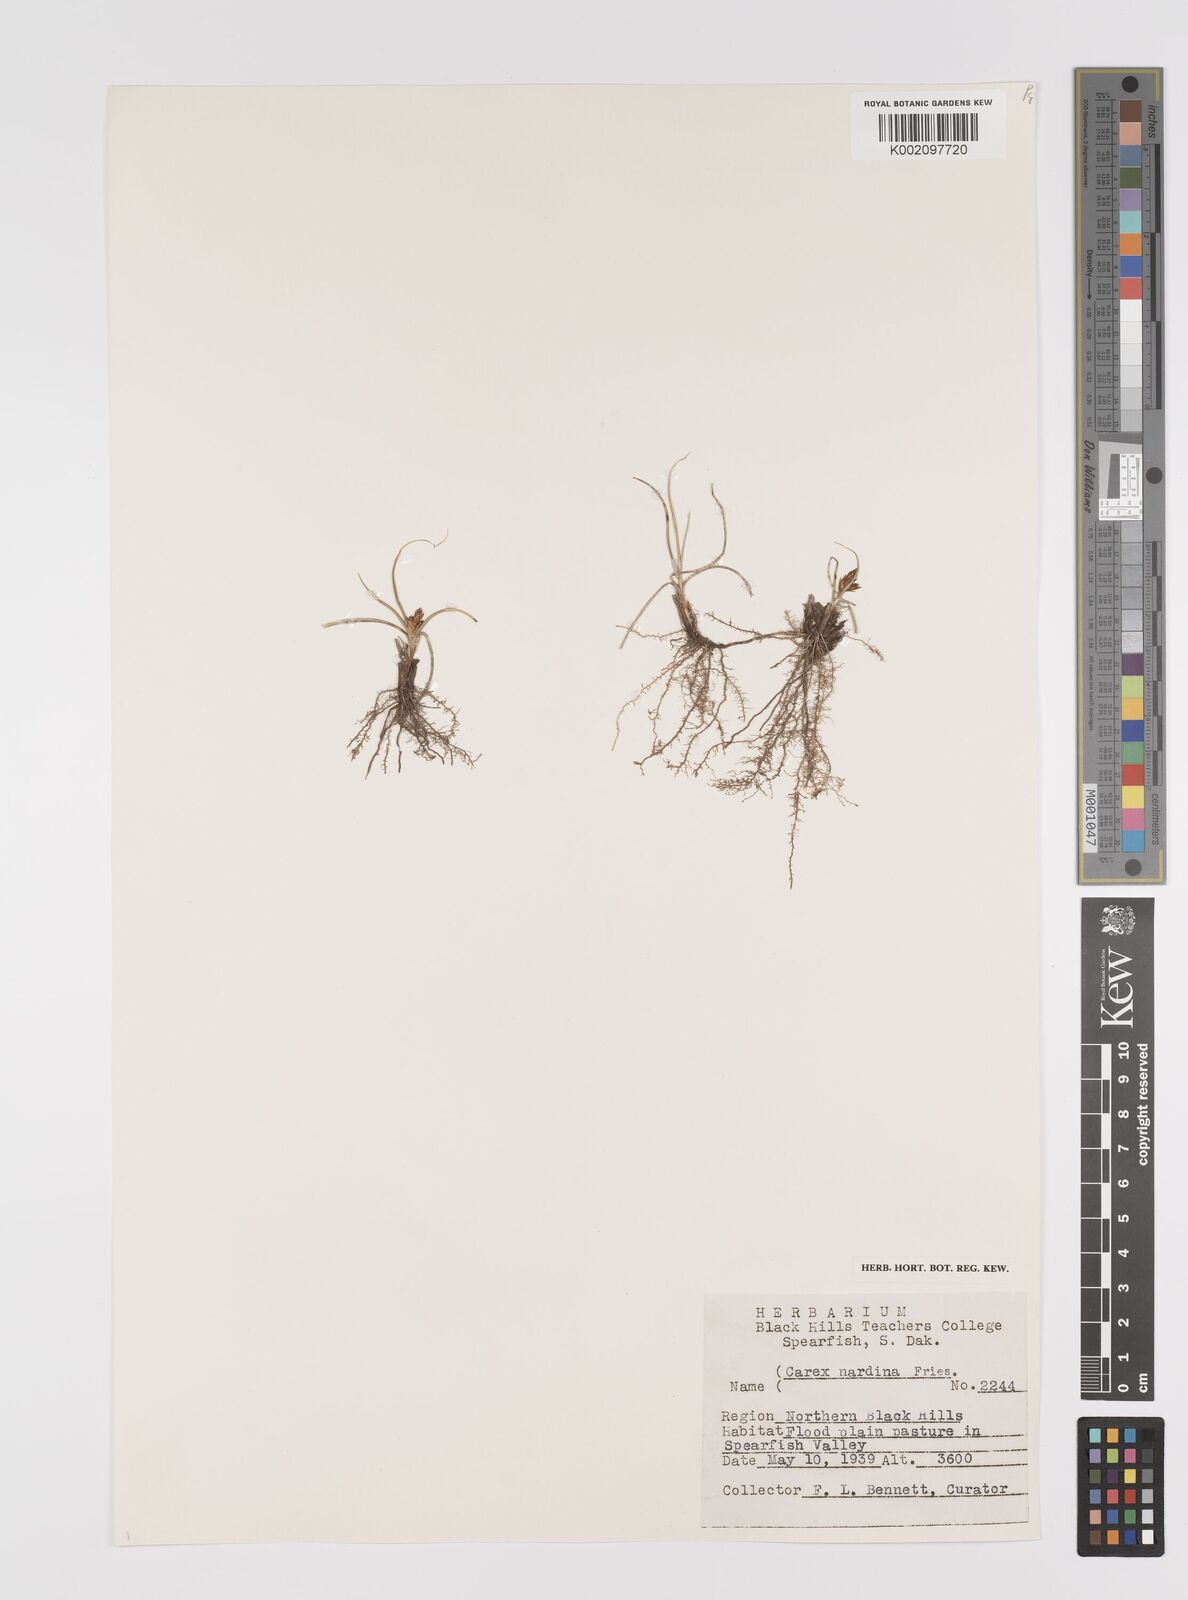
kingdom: Plantae
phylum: Tracheophyta
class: Liliopsida
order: Poales
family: Cyperaceae
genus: Carex
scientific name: Carex nardina
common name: Nard sedge
